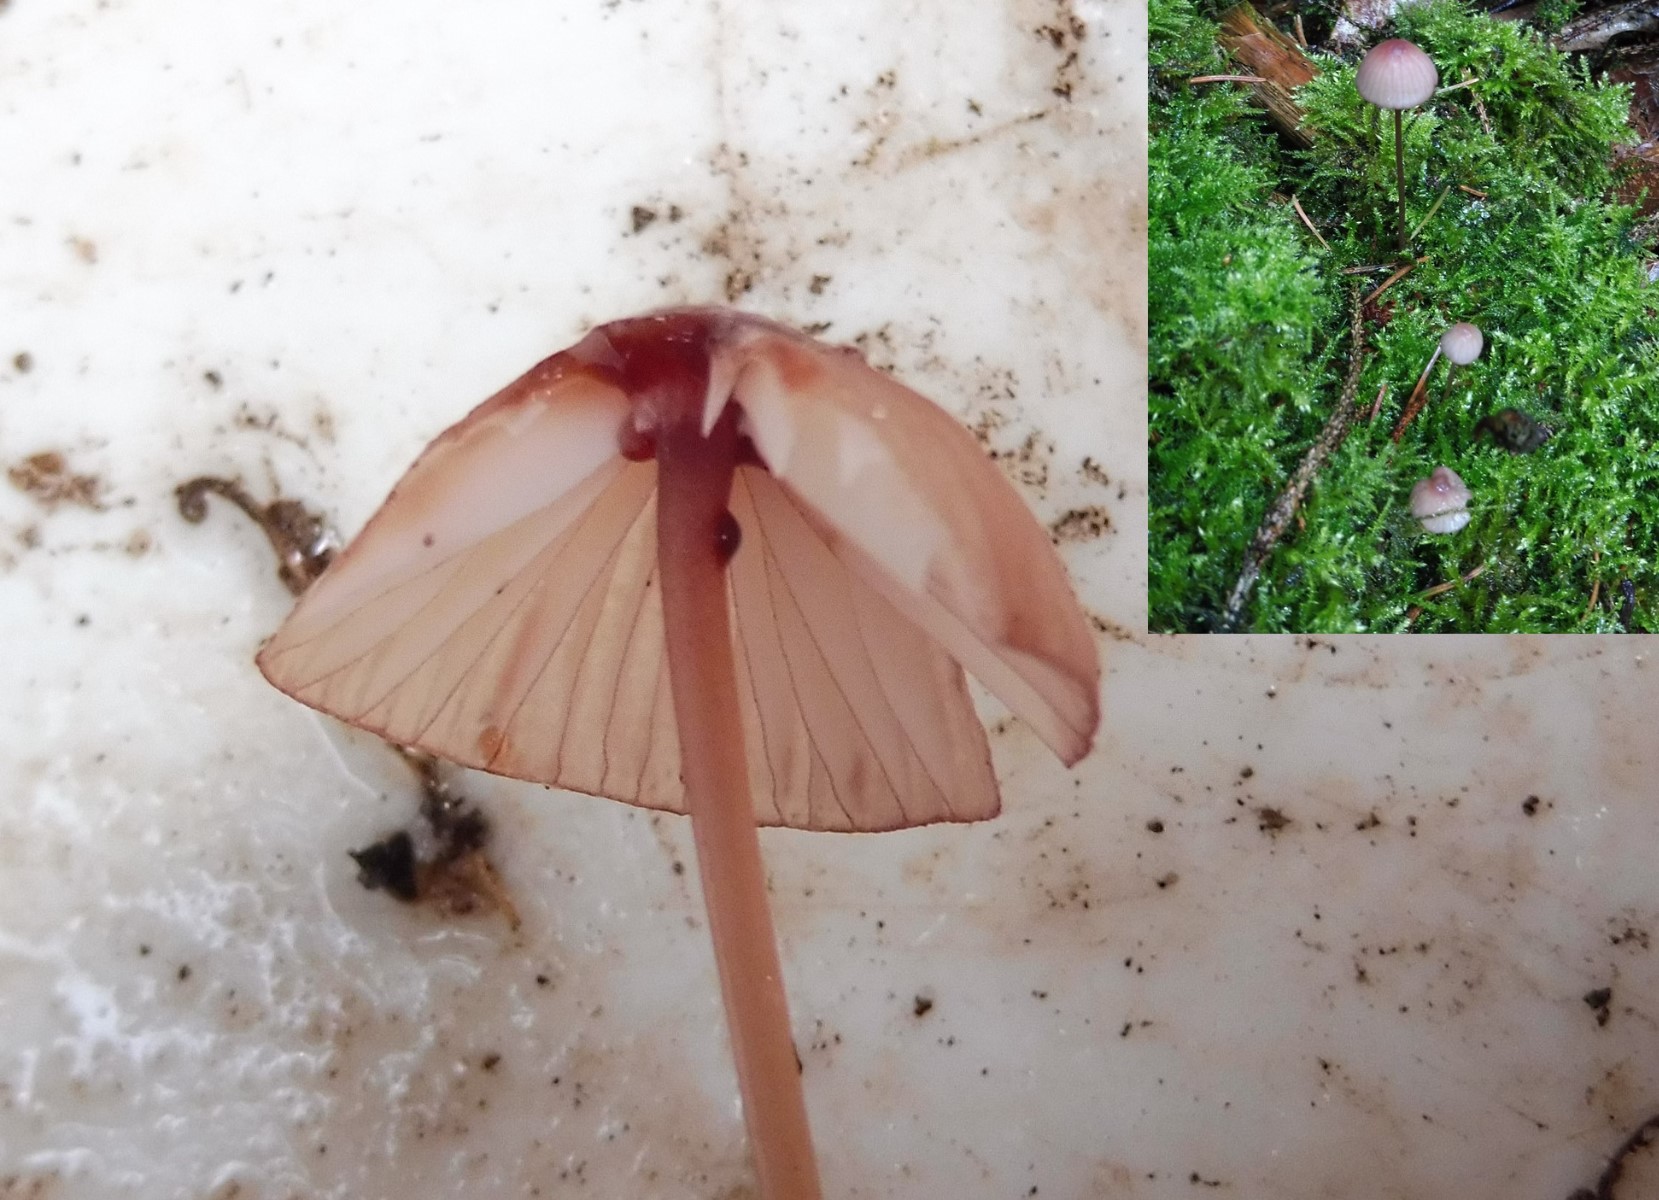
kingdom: Fungi
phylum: Basidiomycota
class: Agaricomycetes
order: Agaricales
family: Mycenaceae
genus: Mycena
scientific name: Mycena sanguinolenta
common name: rødmælket huesvamp
